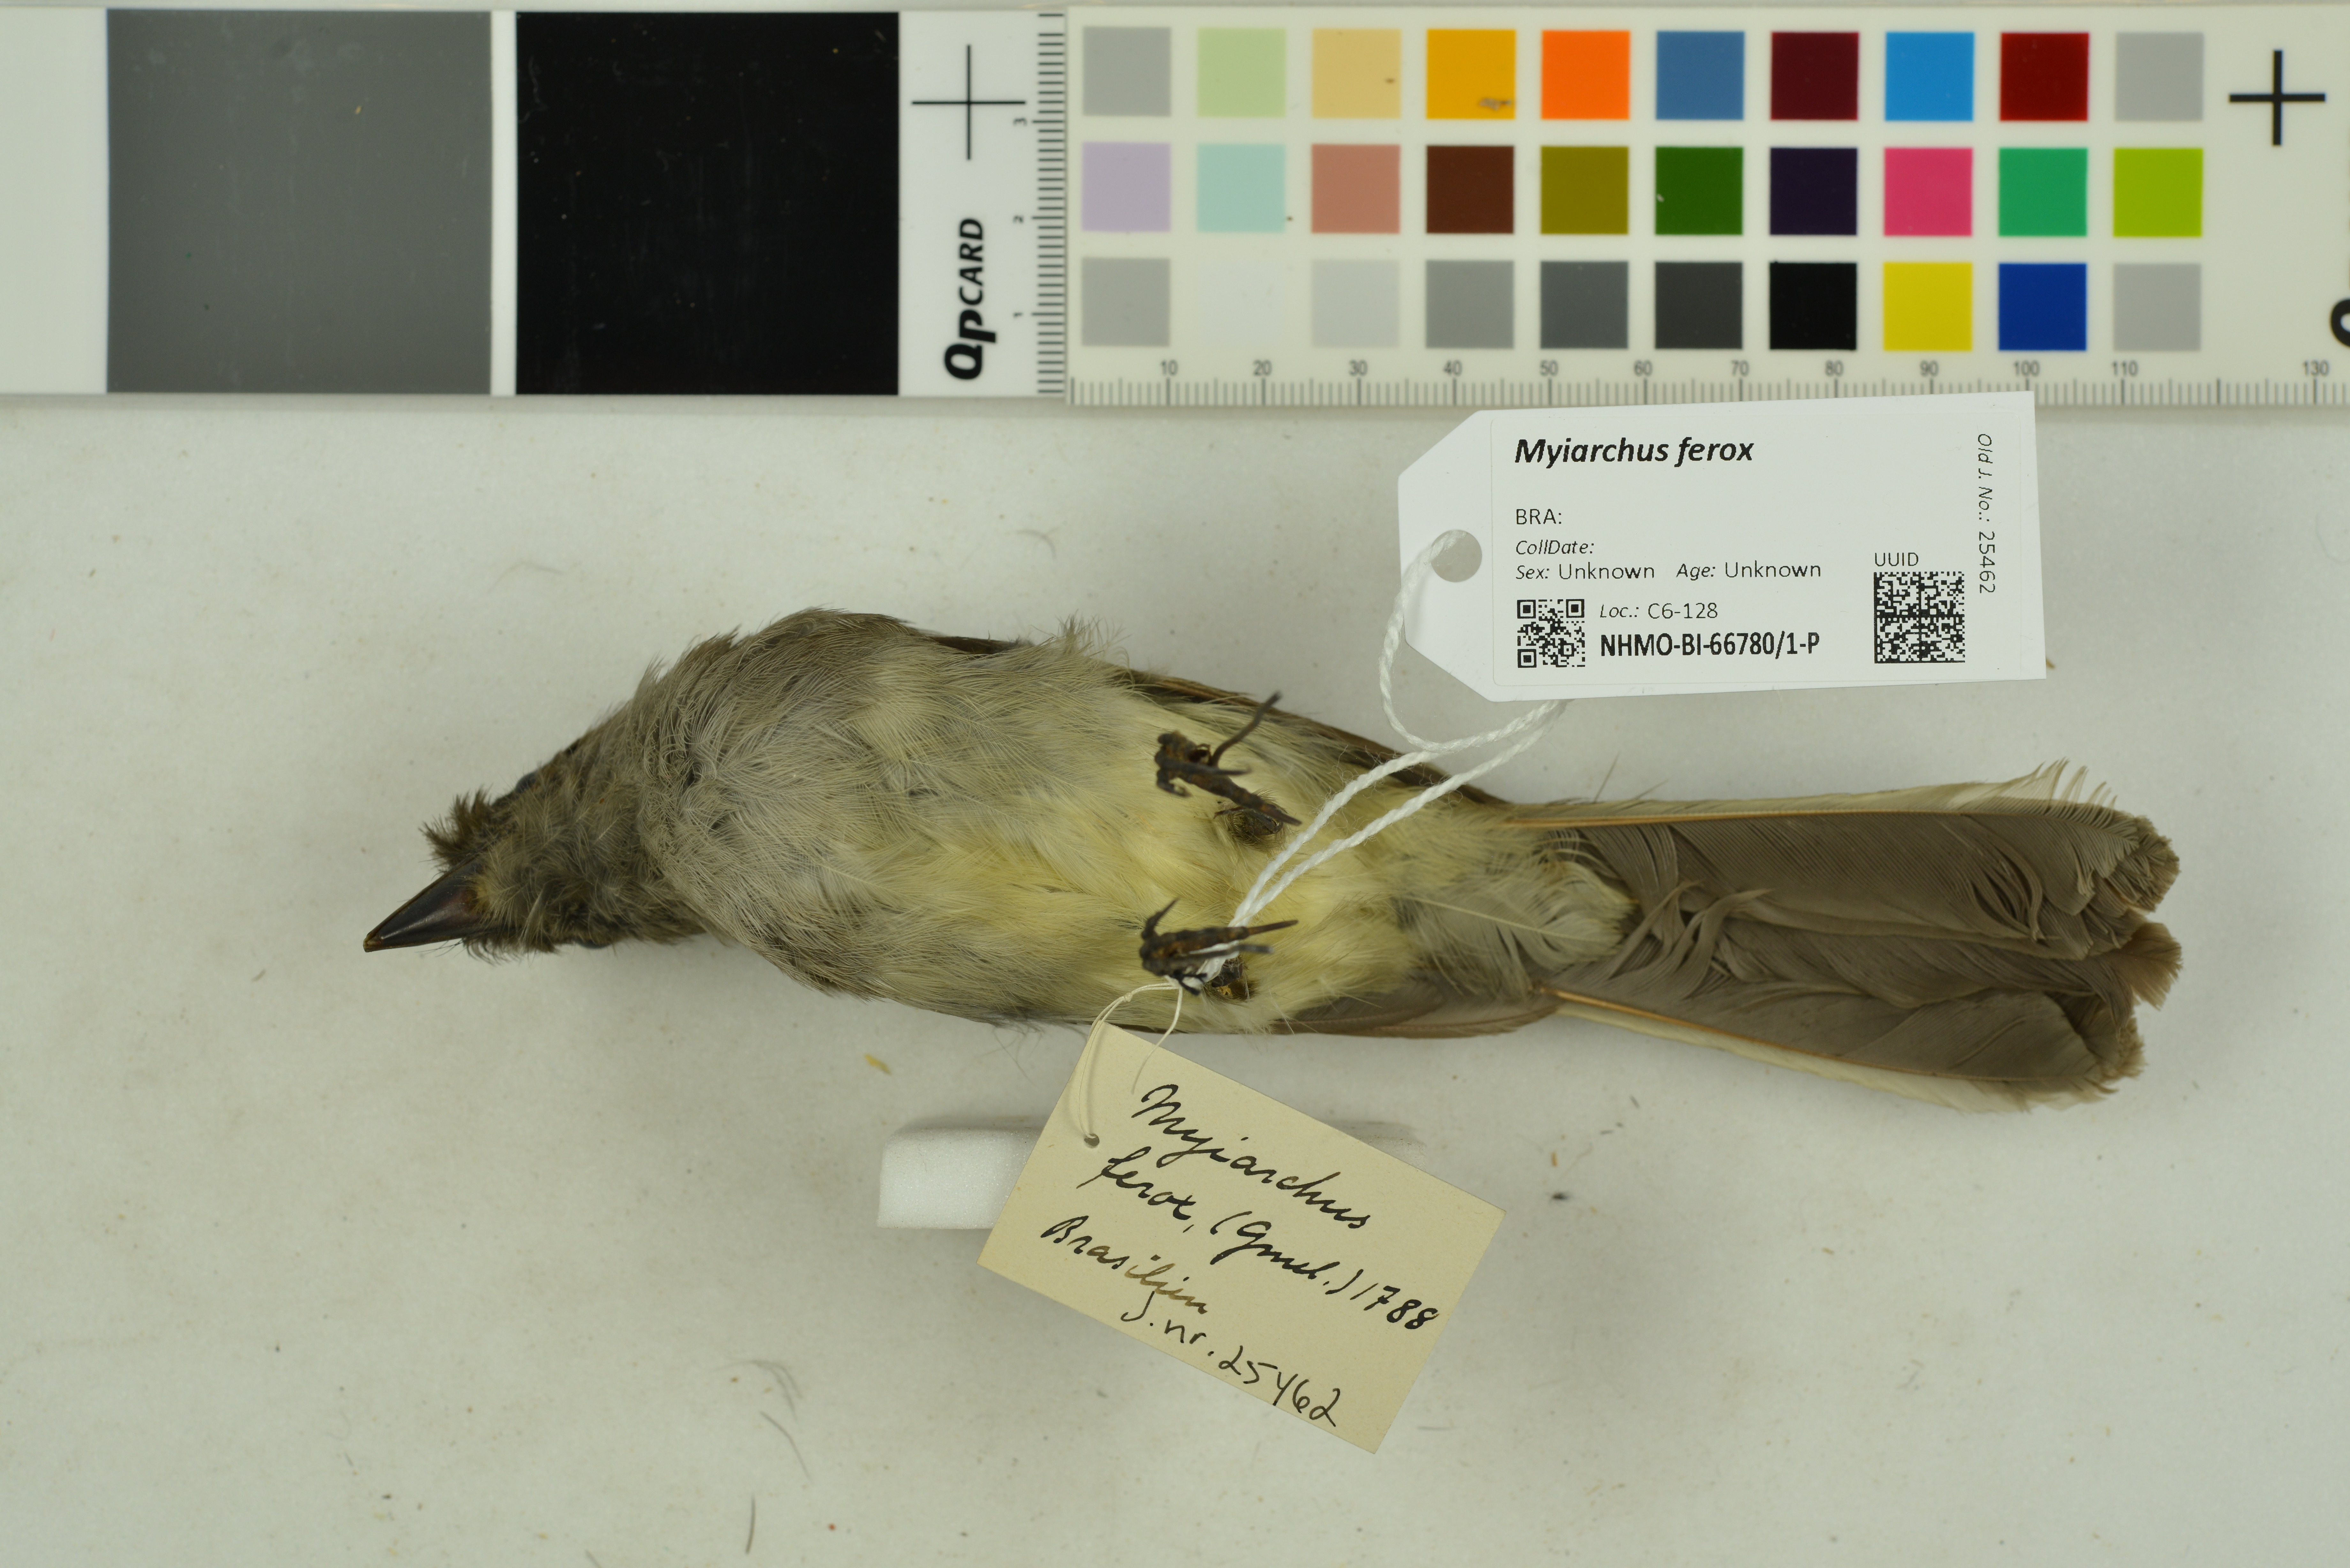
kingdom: Animalia
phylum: Chordata
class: Aves
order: Passeriformes
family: Tyrannidae
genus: Myiarchus
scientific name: Myiarchus ferox
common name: Short-crested flycatcher
